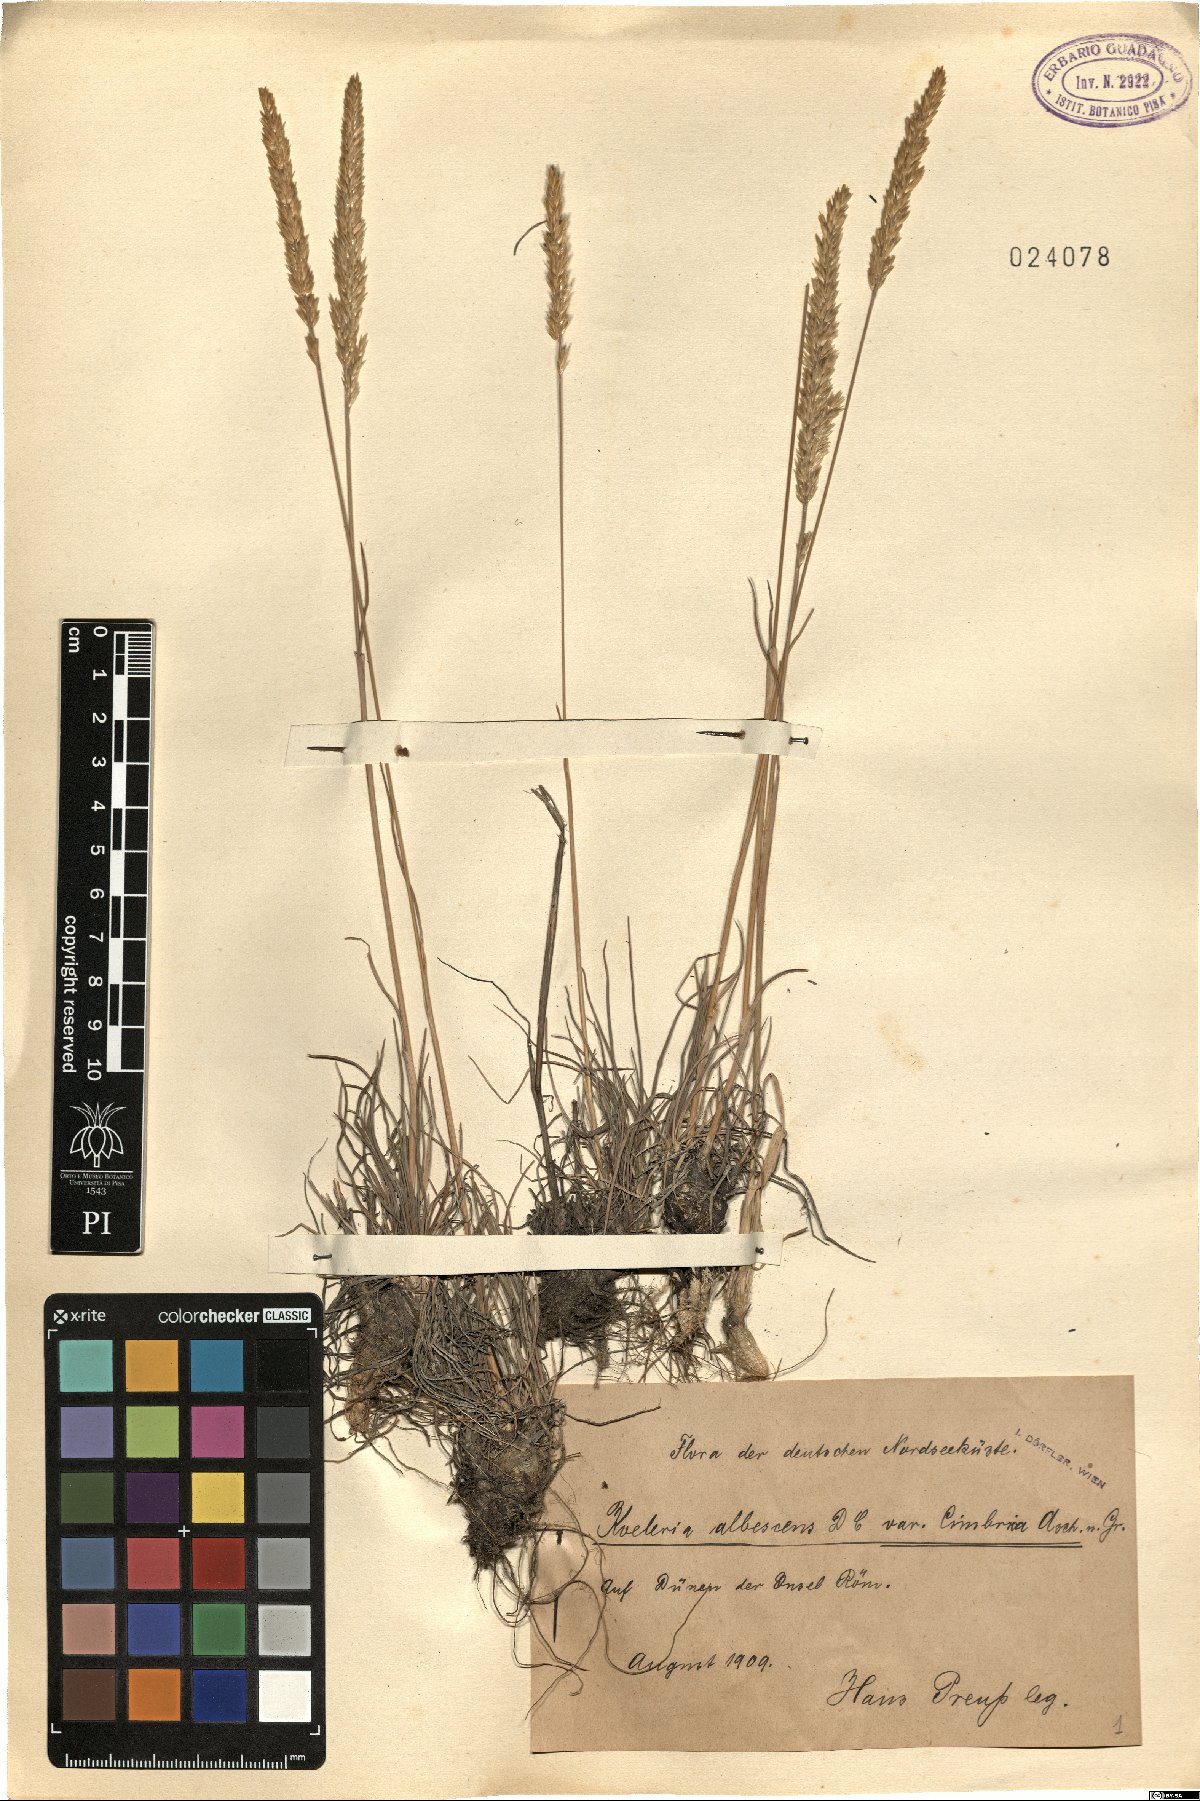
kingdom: Plantae
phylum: Tracheophyta
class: Liliopsida
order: Poales
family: Poaceae
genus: Koeleria
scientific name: Koeleria albescens
